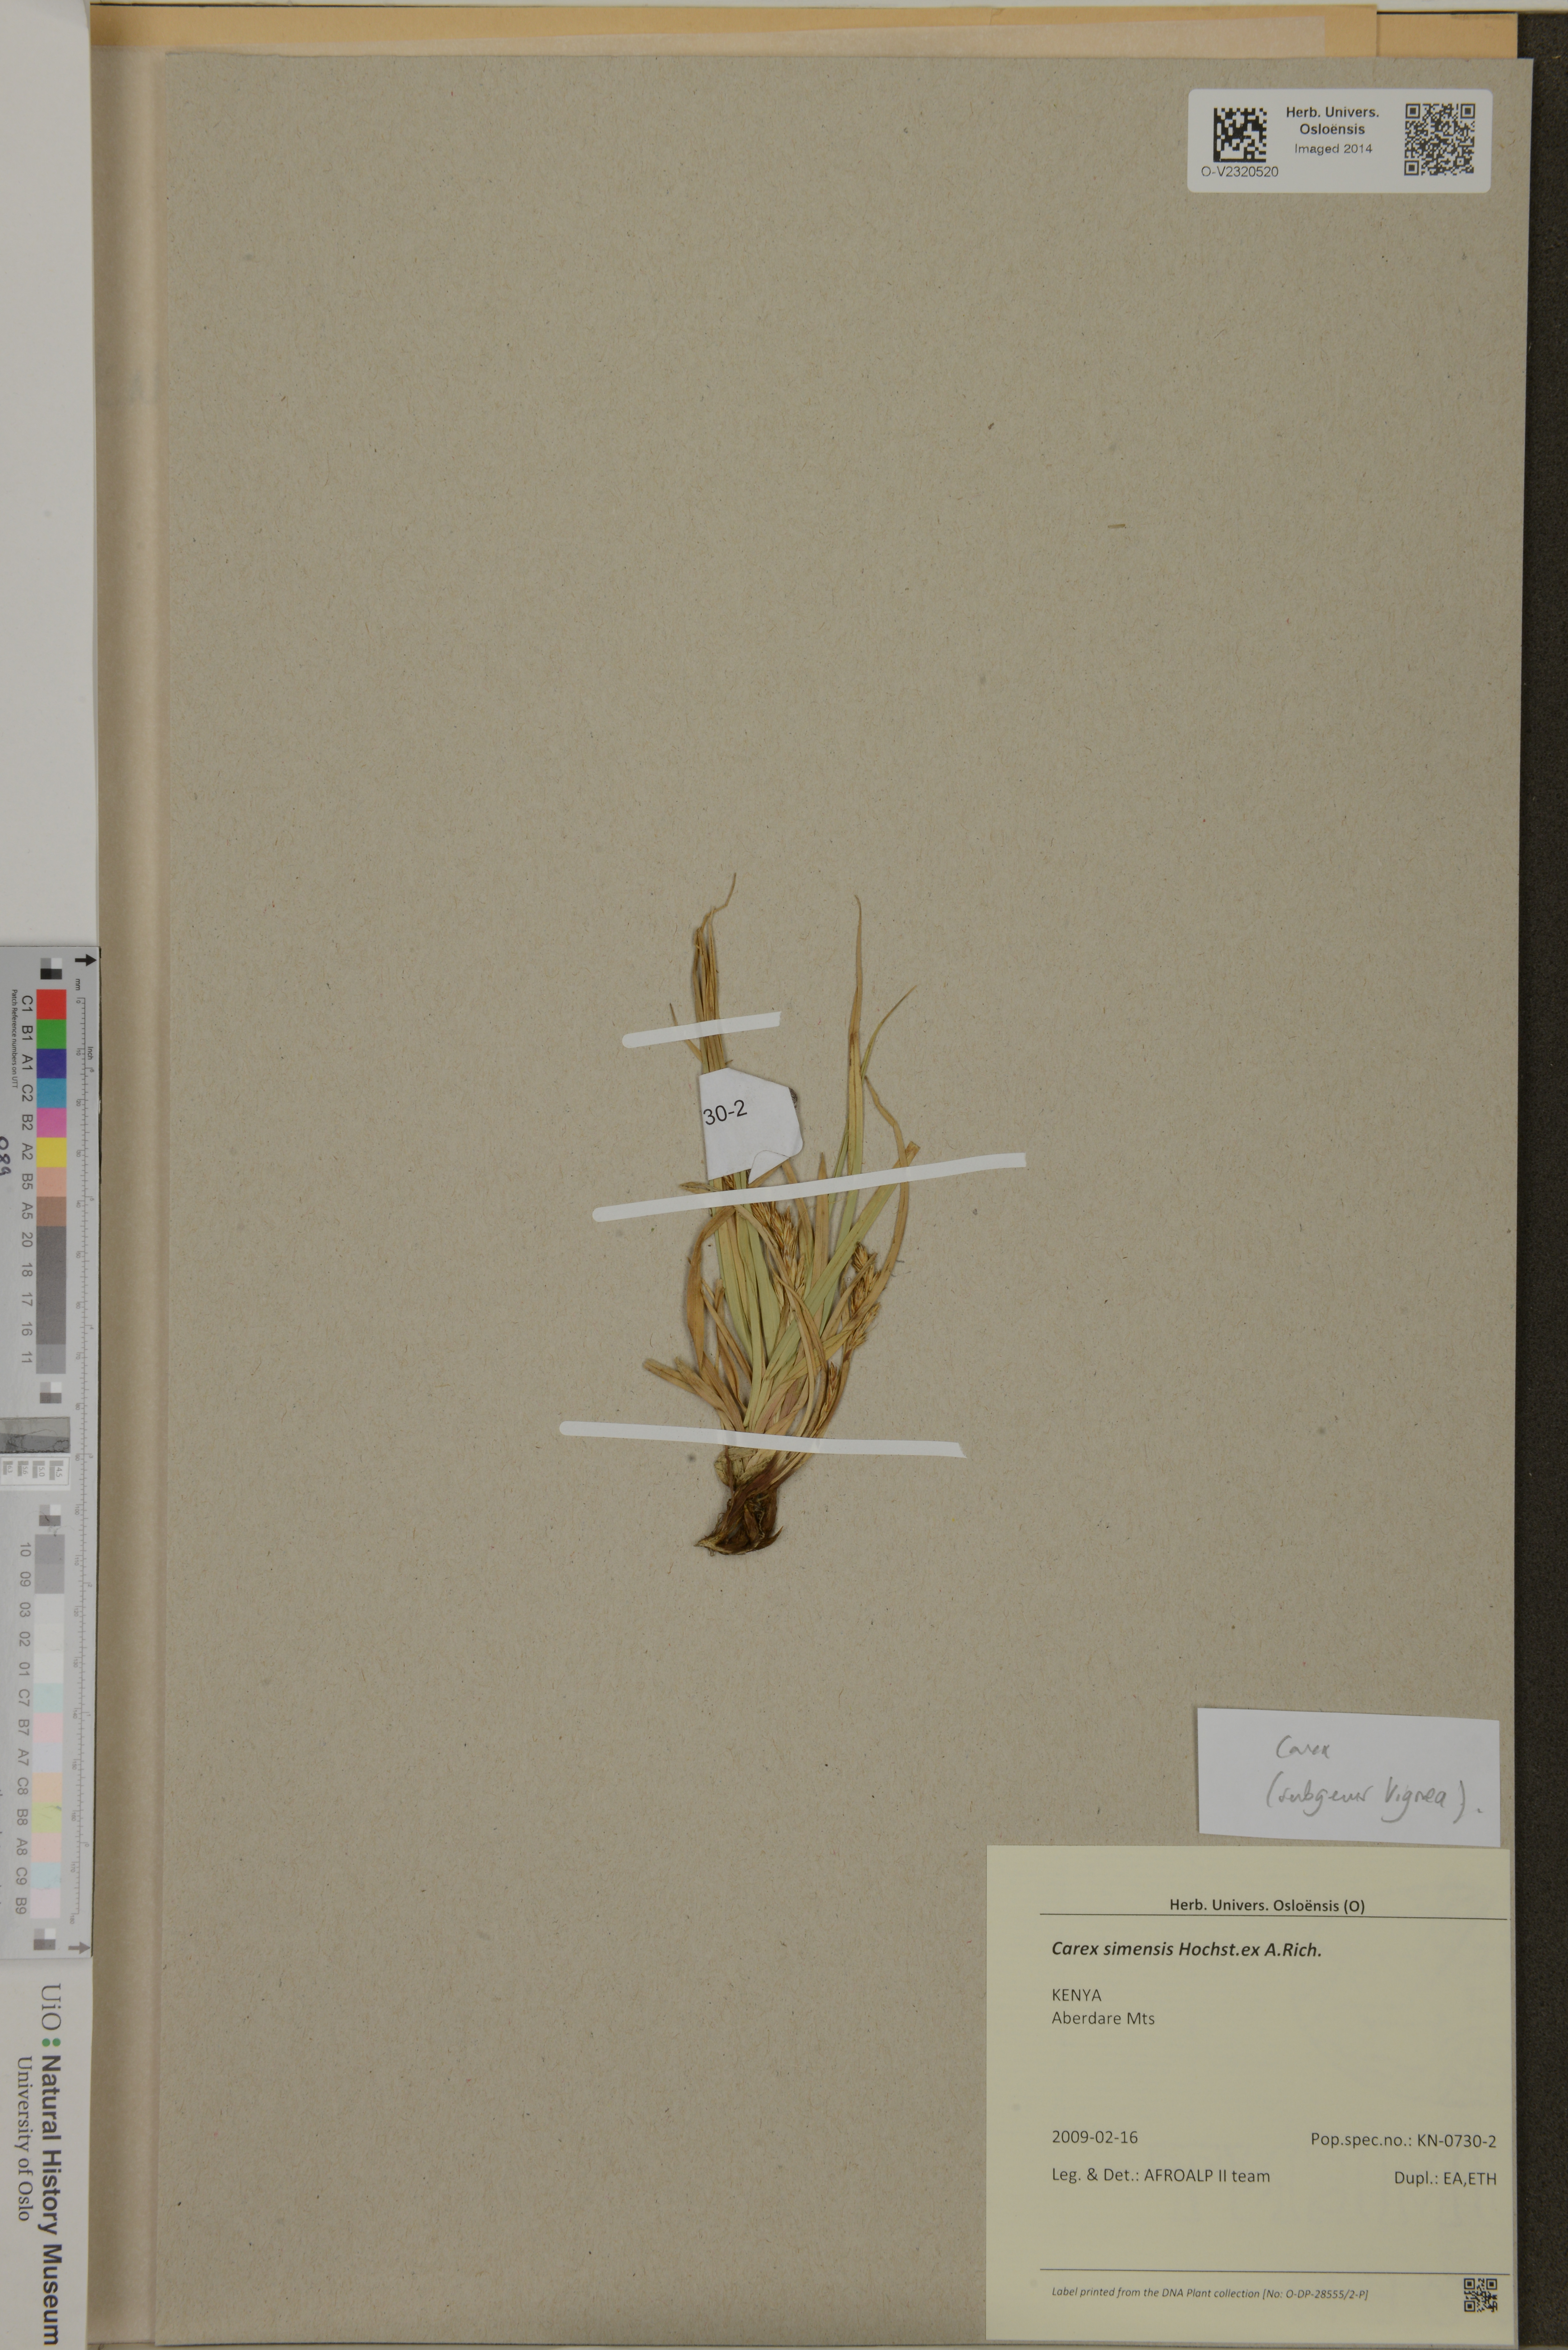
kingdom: Plantae
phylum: Tracheophyta
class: Liliopsida
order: Poales
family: Cyperaceae
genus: Carex
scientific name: Carex simensis
